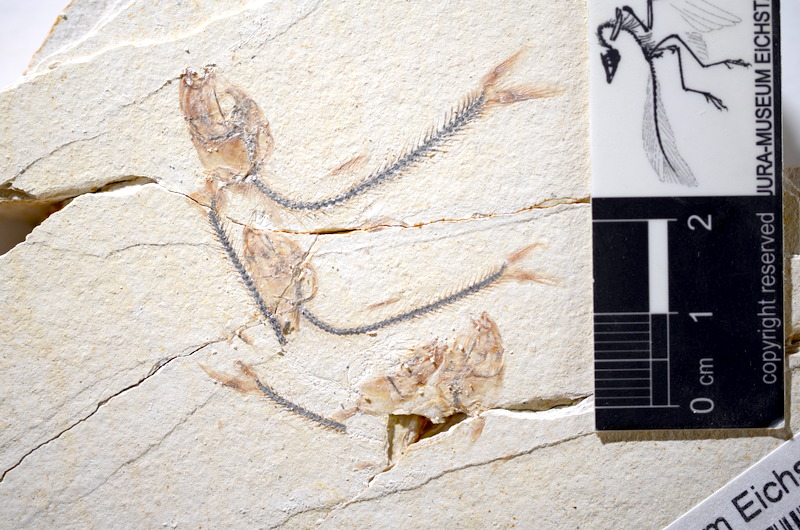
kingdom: Animalia
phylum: Chordata
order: Salmoniformes
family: Orthogonikleithridae
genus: Orthogonikleithrus
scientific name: Orthogonikleithrus hoelli
